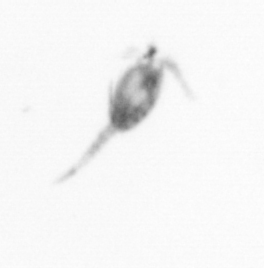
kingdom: Animalia
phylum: Arthropoda
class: Copepoda
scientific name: Copepoda
